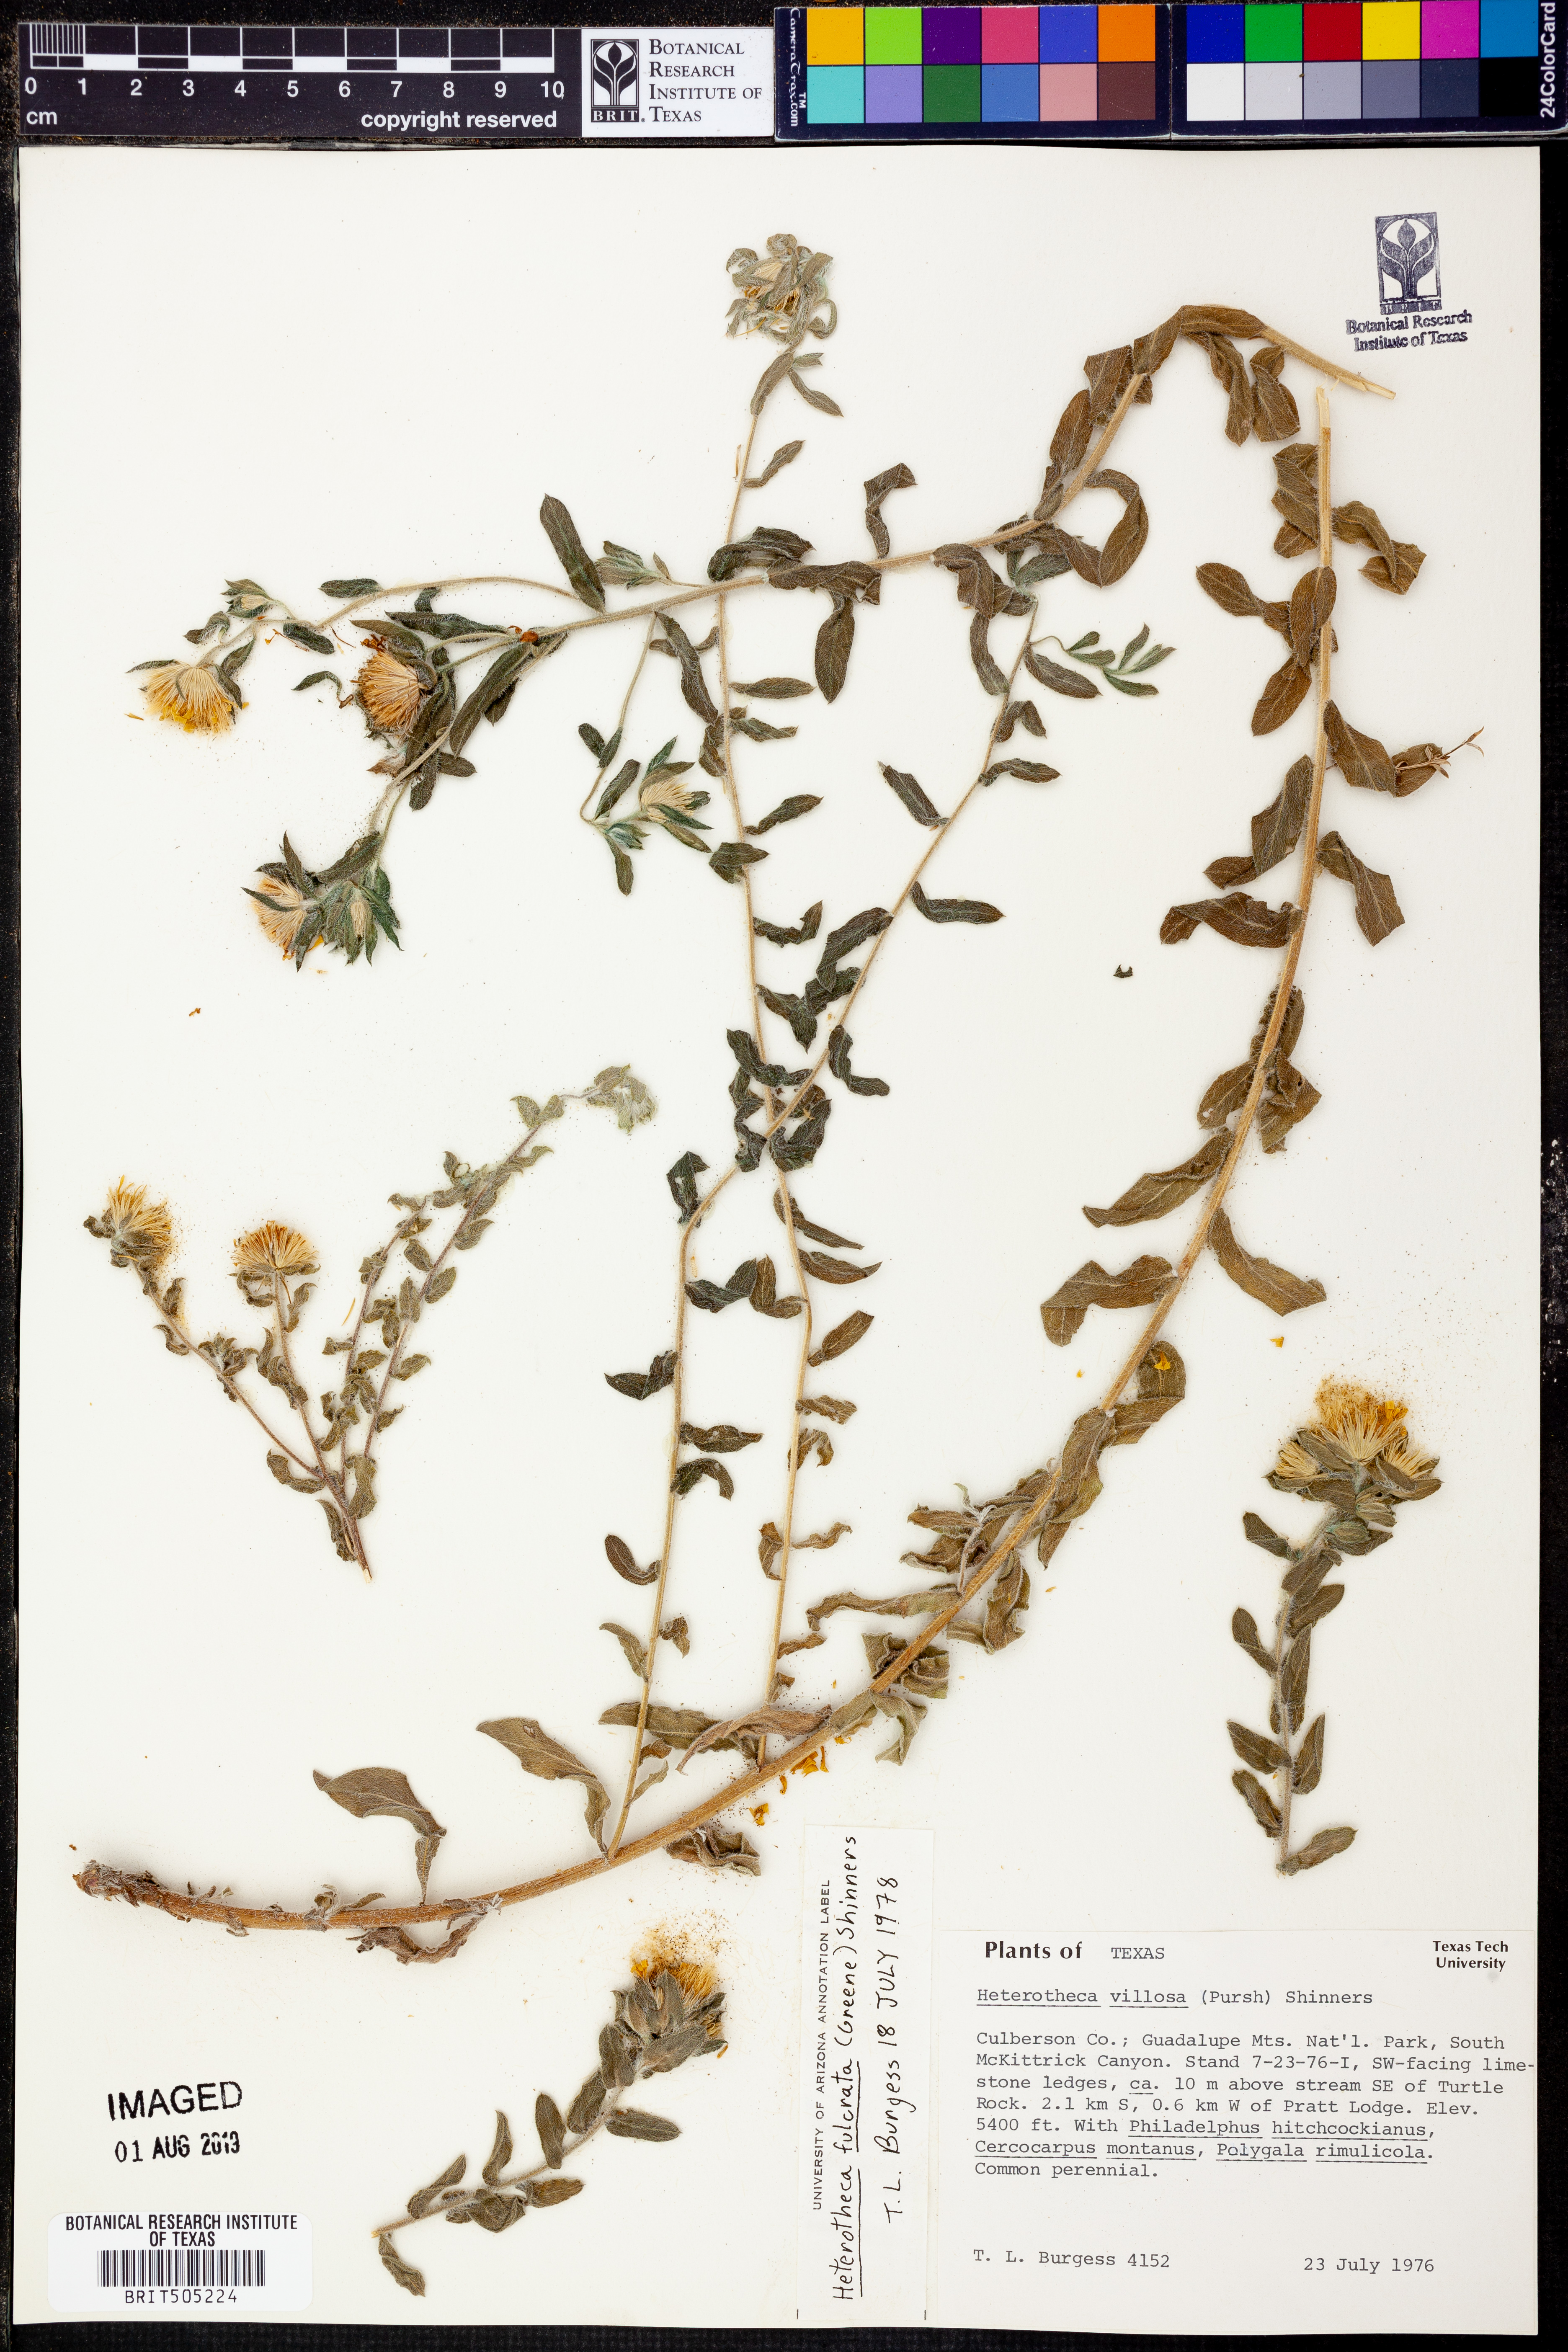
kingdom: Plantae
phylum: Tracheophyta
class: Magnoliopsida
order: Asterales
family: Asteraceae
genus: Heterotheca
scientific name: Heterotheca fulcrata
